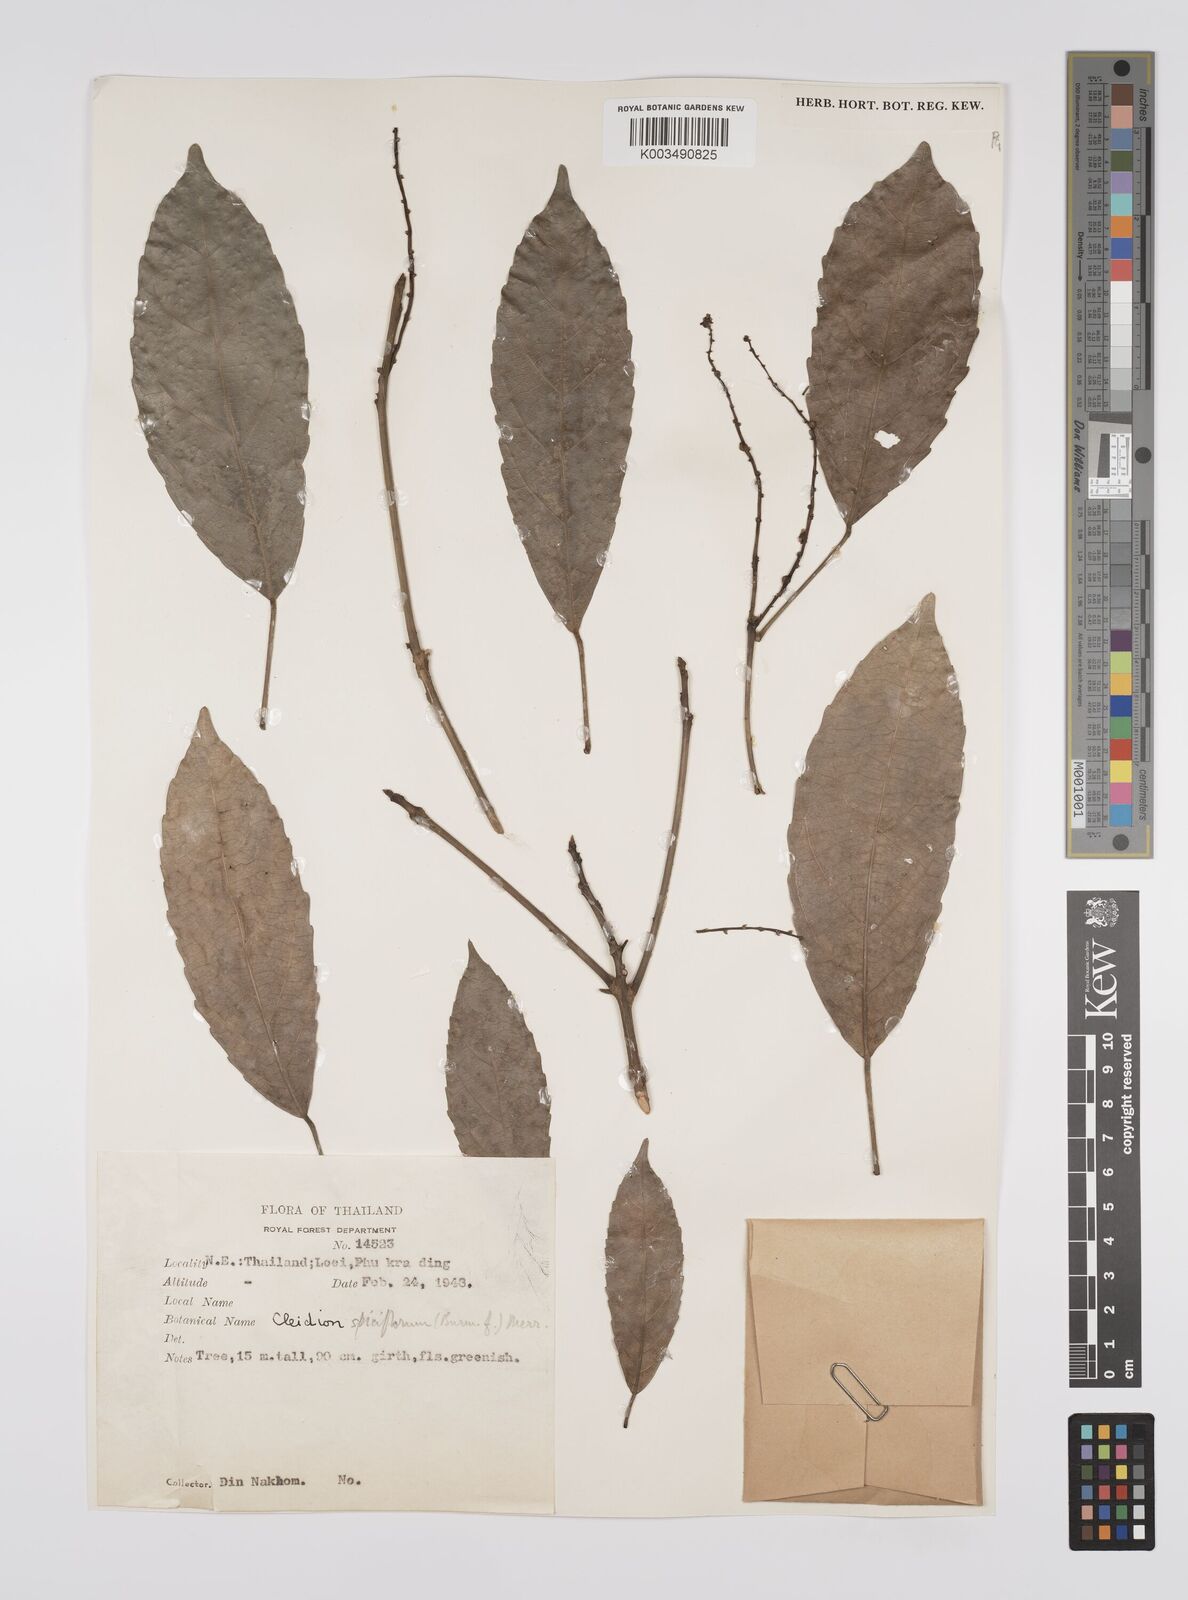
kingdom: Plantae
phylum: Tracheophyta
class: Magnoliopsida
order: Malpighiales
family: Euphorbiaceae
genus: Acalypha
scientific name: Acalypha spiciflora
